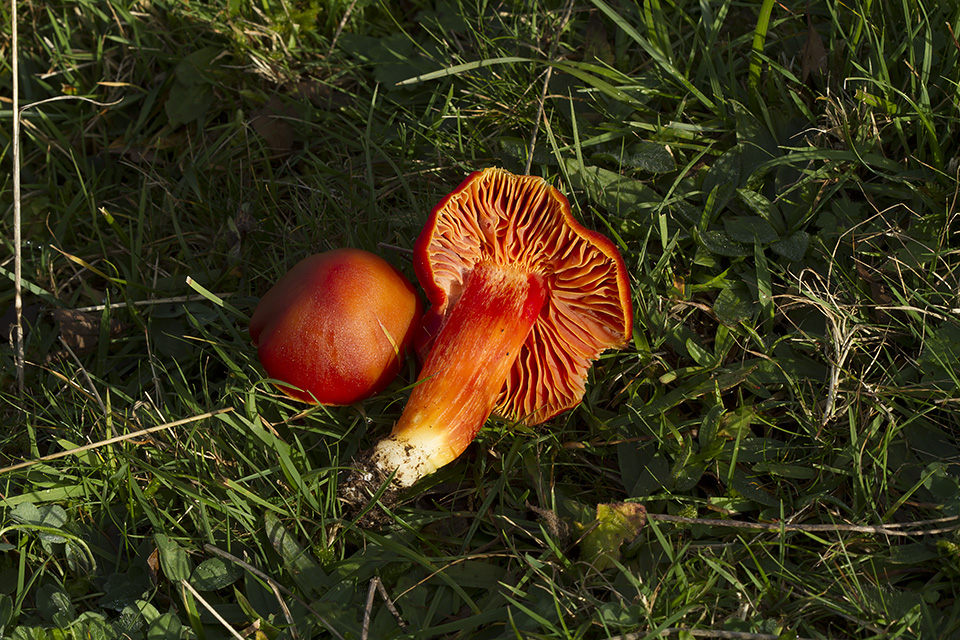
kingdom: Fungi
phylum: Basidiomycota
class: Agaricomycetes
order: Agaricales
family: Hygrophoraceae
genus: Hygrocybe
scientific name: Hygrocybe punicea
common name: skarlagen-vokshat
